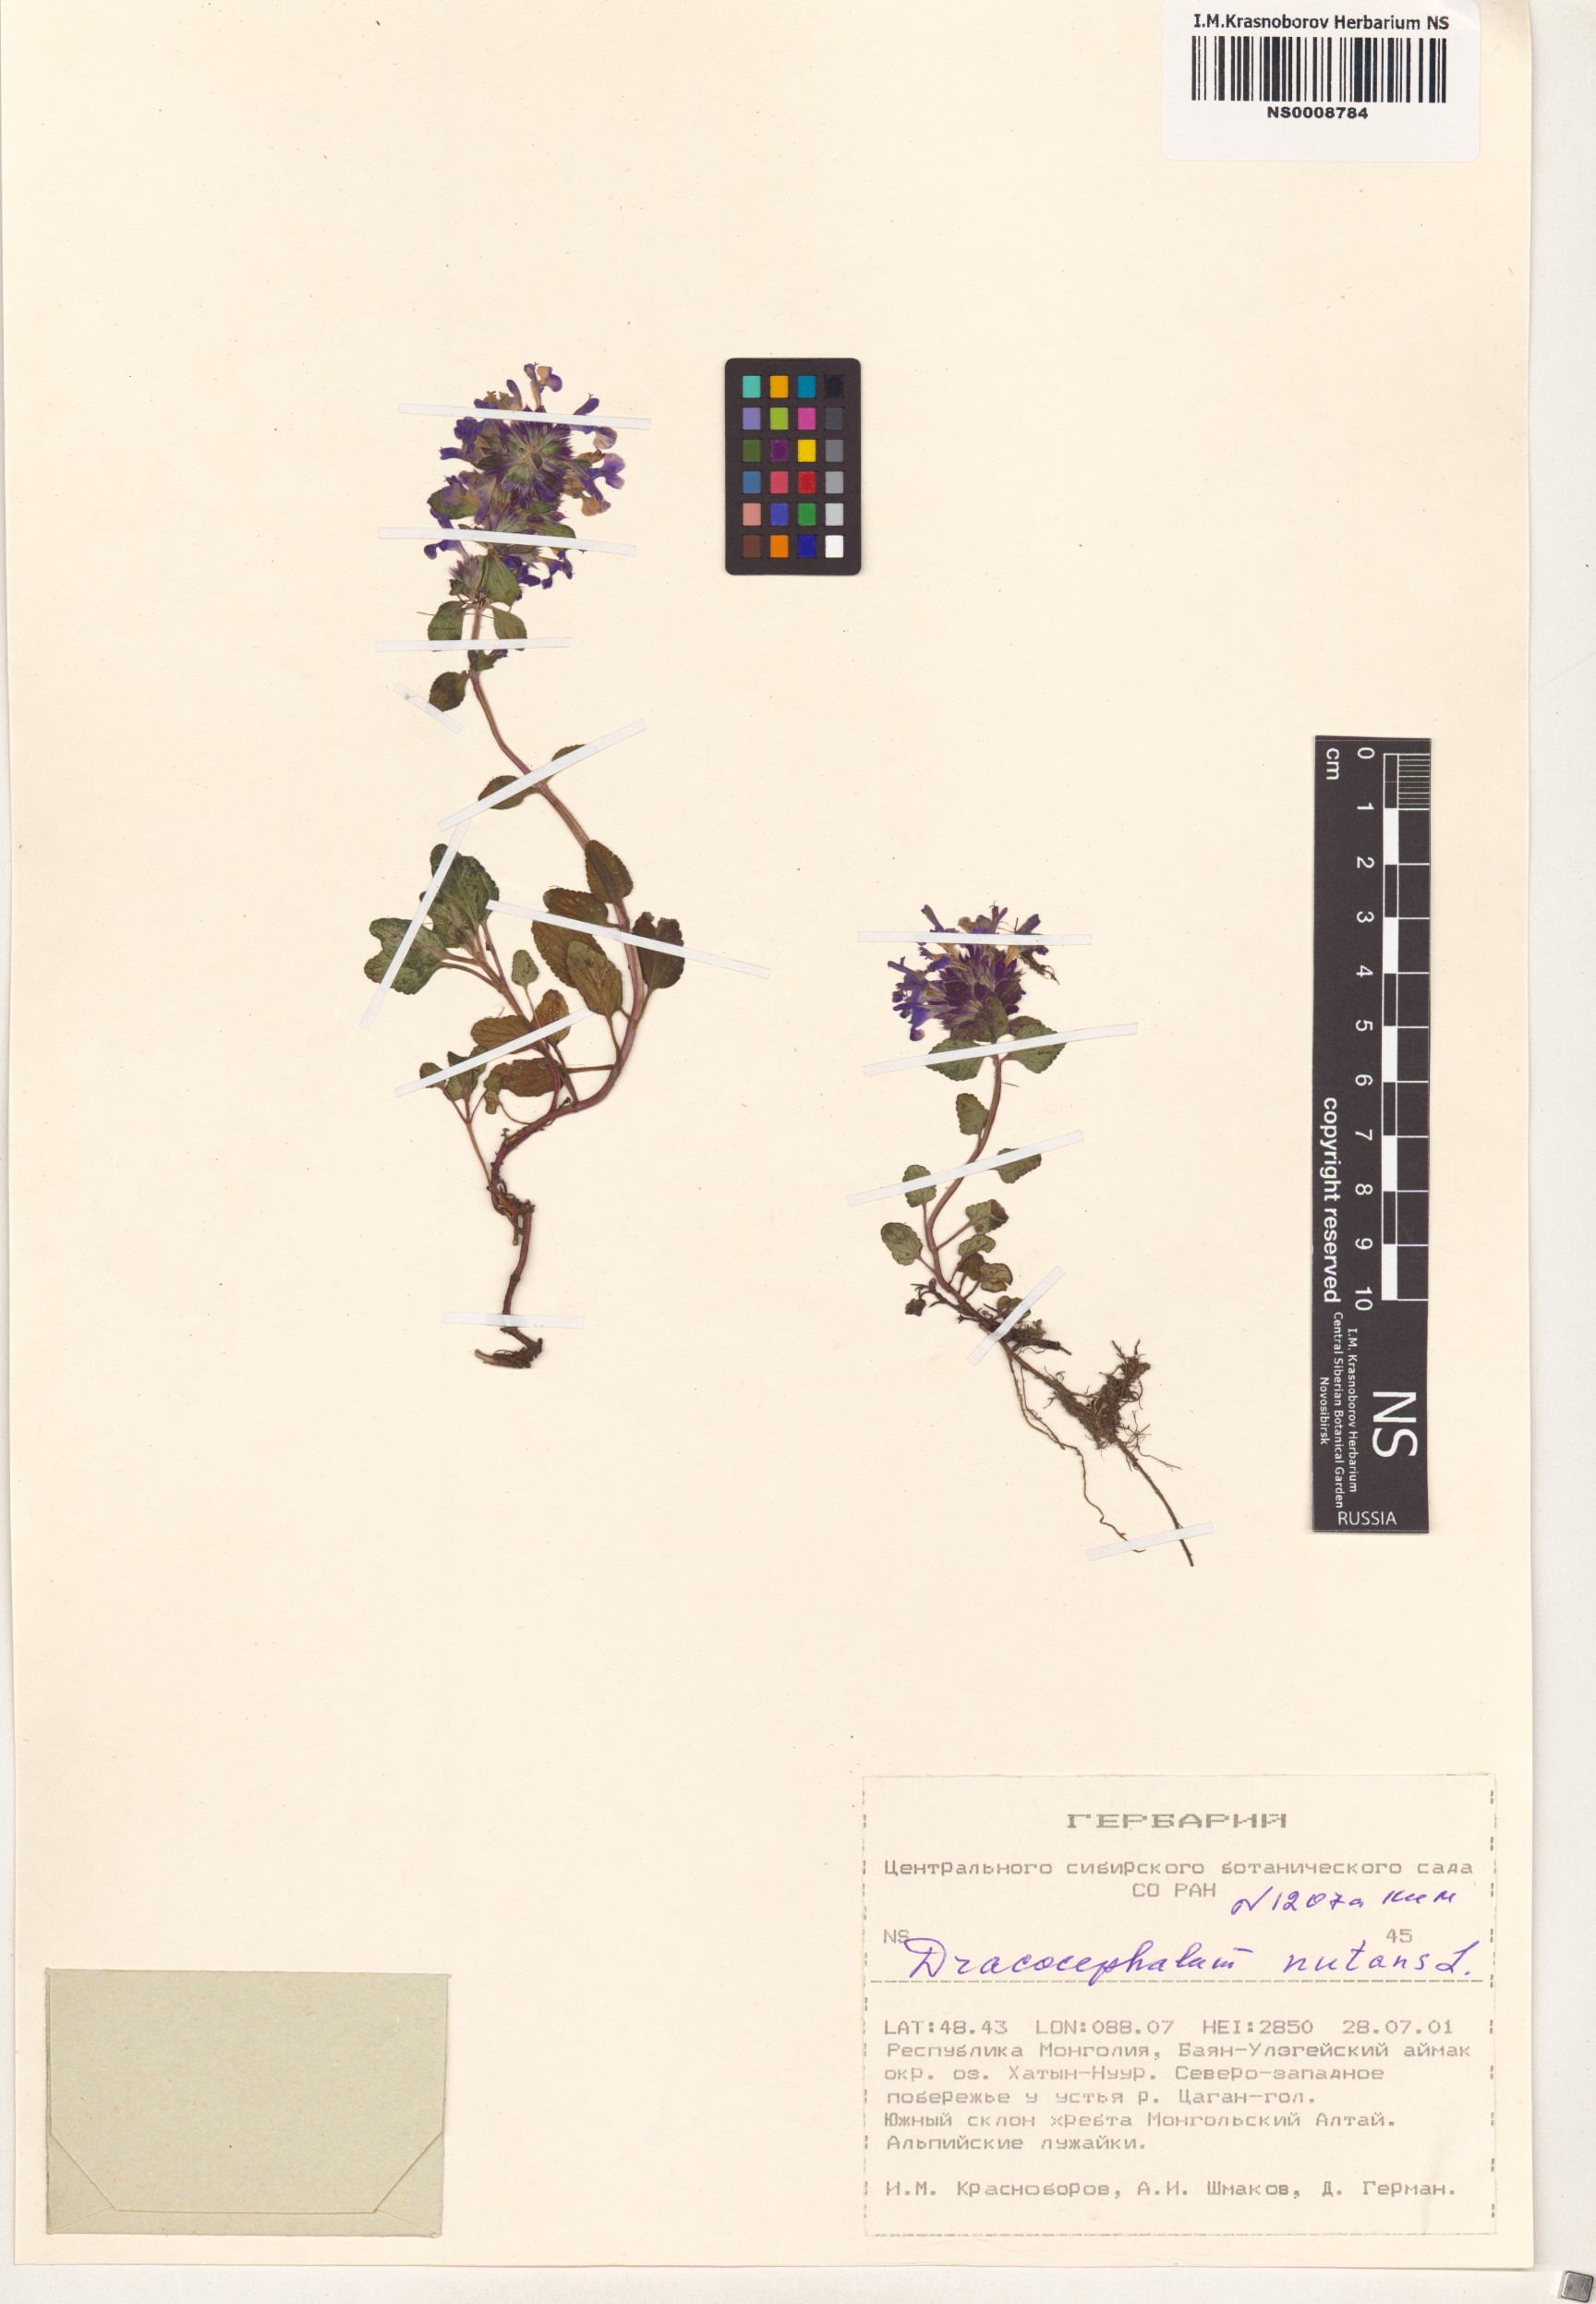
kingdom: Plantae
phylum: Tracheophyta
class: Magnoliopsida
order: Lamiales
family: Lamiaceae
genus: Dracocephalum
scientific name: Dracocephalum nutans
